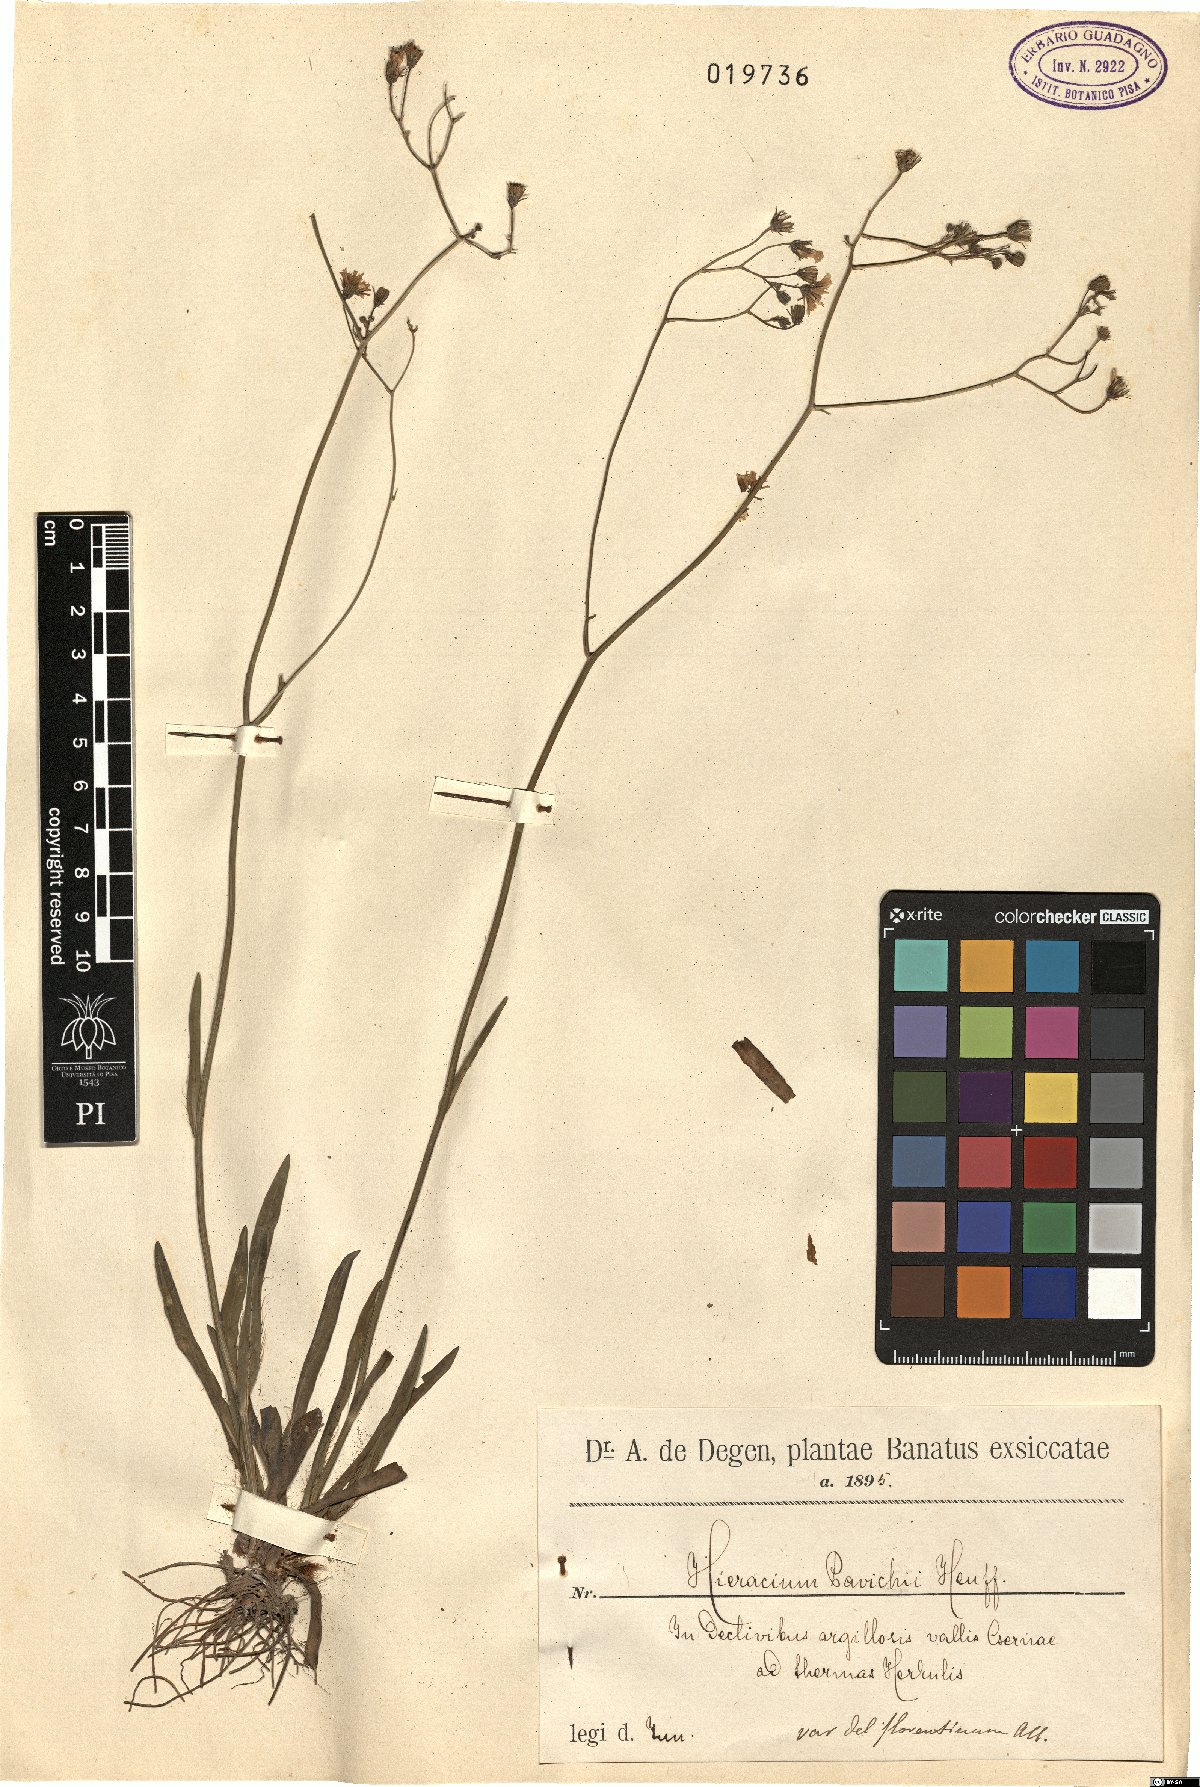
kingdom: Plantae
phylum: Tracheophyta
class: Magnoliopsida
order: Asterales
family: Asteraceae
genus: Pilosella
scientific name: Pilosella pavichii
